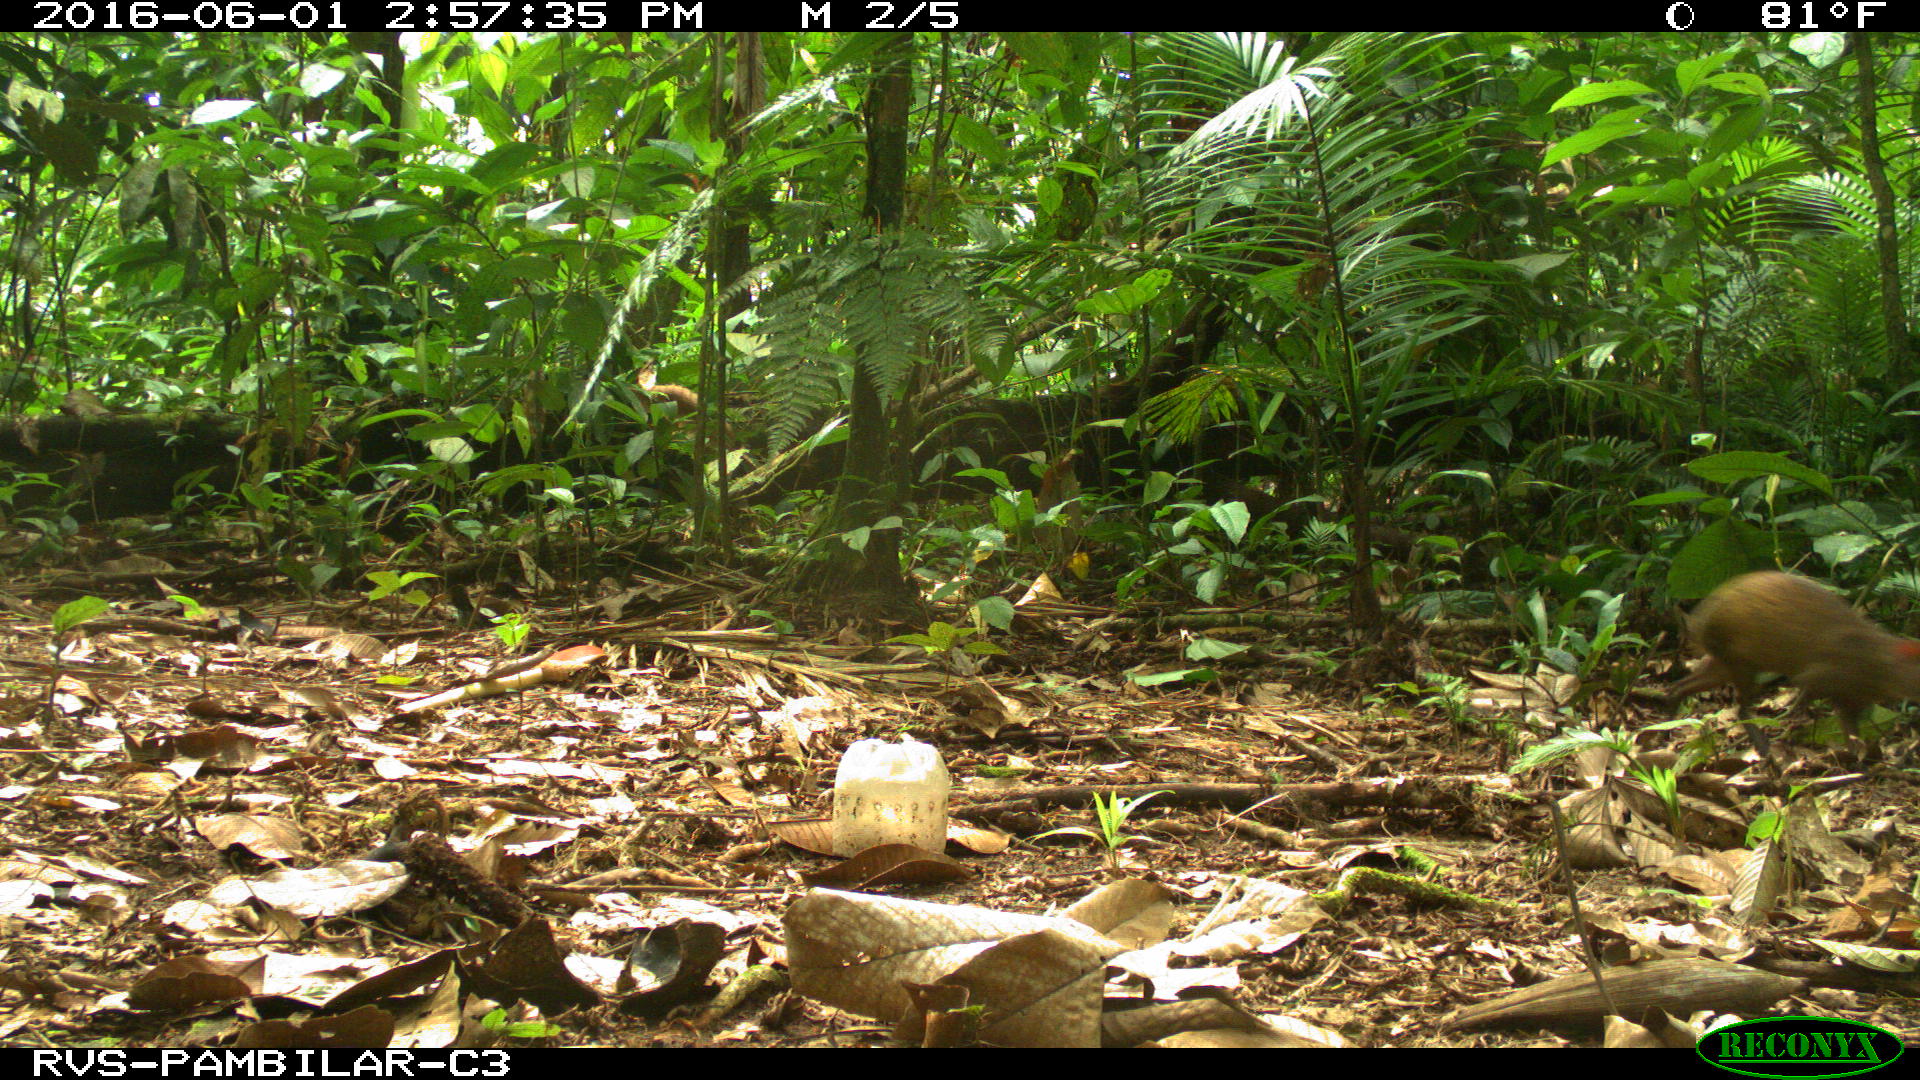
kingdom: Animalia
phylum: Chordata
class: Mammalia
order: Rodentia
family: Dasyproctidae
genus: Dasyprocta
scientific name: Dasyprocta punctata
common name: Central american agouti
